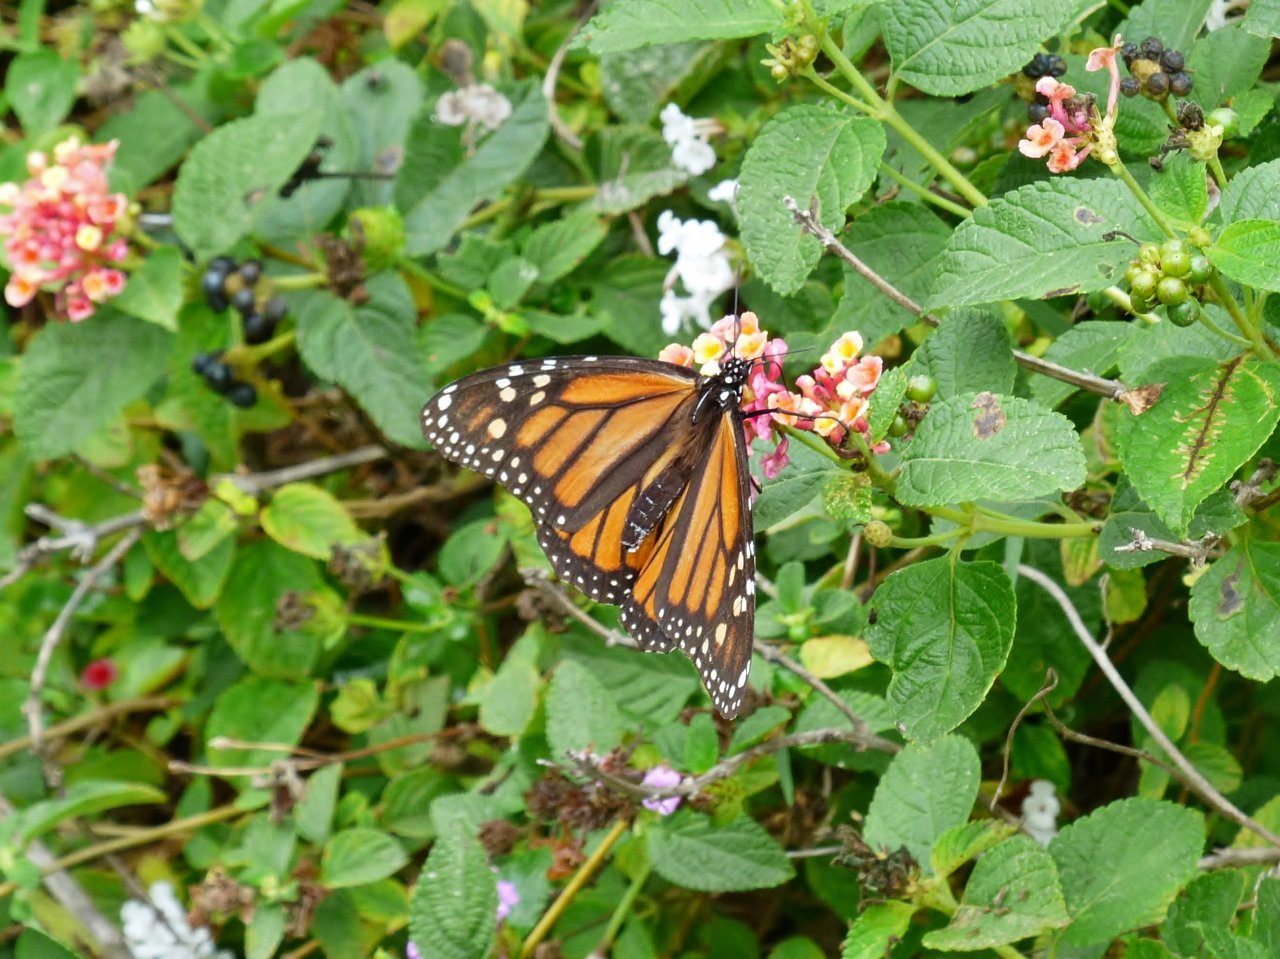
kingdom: Animalia
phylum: Arthropoda
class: Insecta
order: Lepidoptera
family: Nymphalidae
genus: Danaus
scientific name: Danaus plexippus
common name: Monarch
